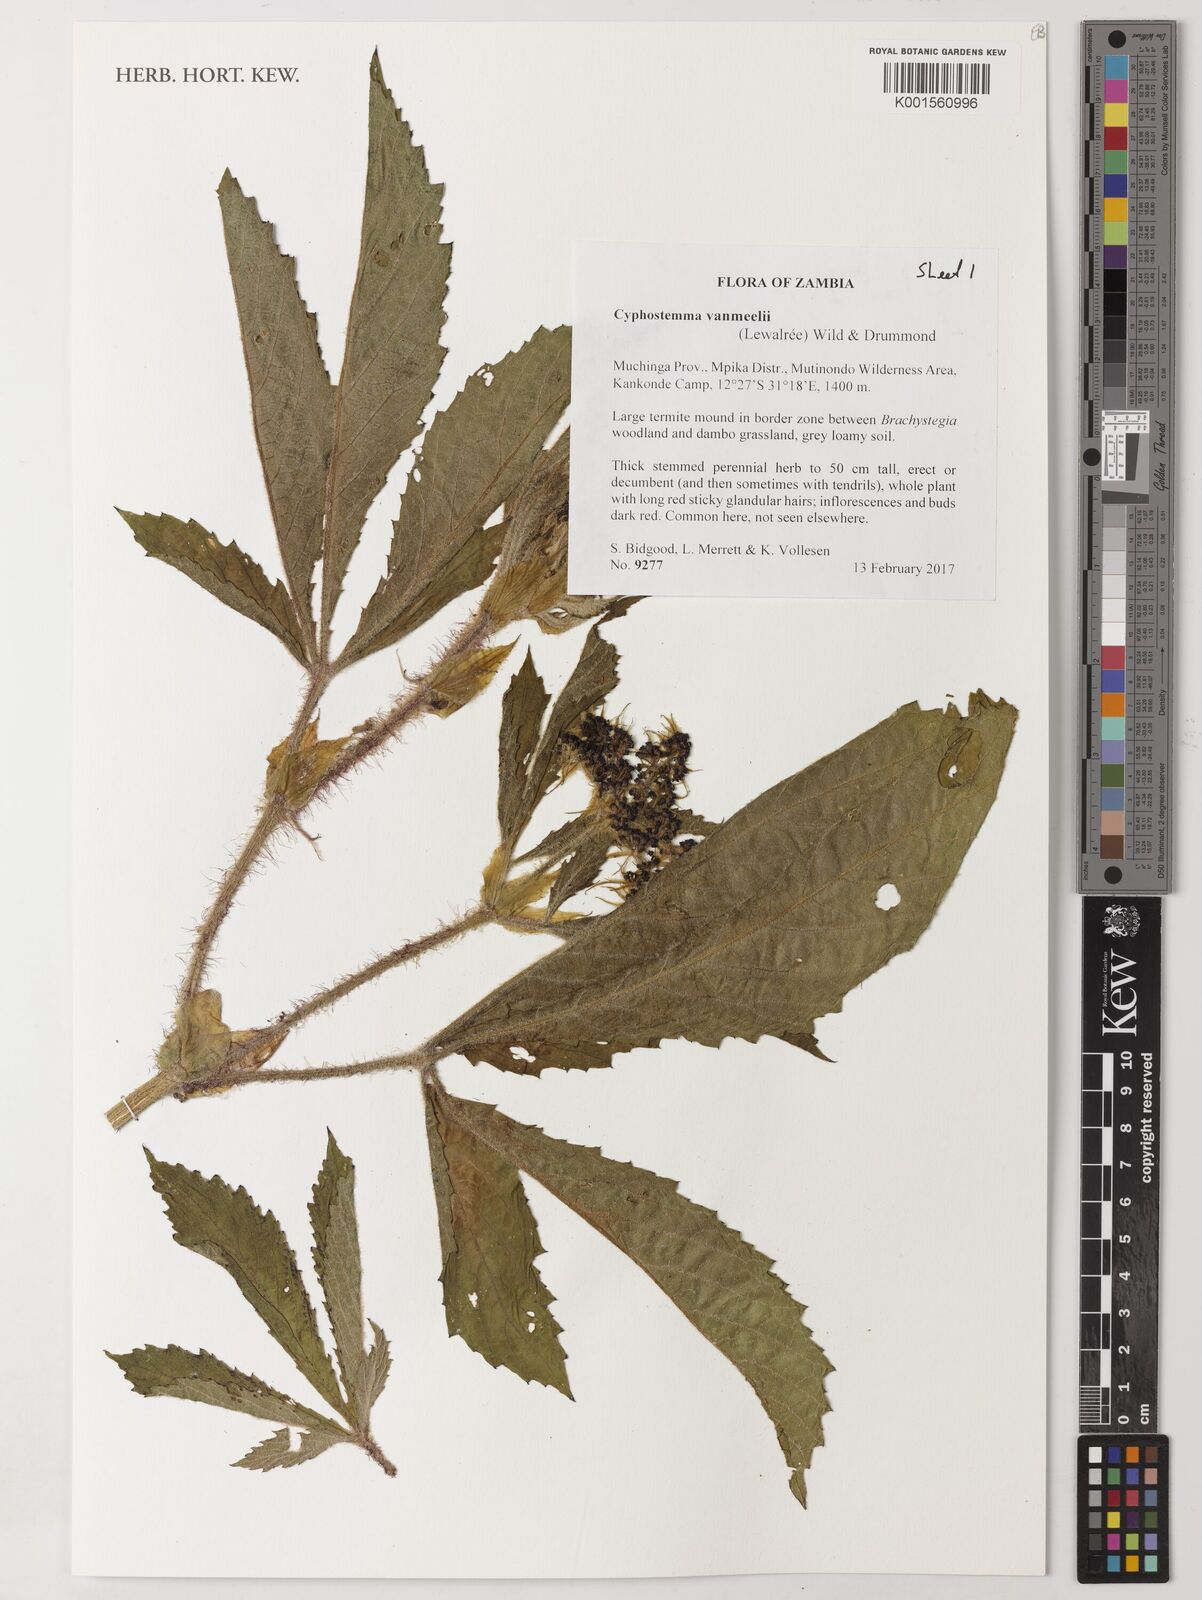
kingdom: Plantae
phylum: Tracheophyta
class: Magnoliopsida
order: Vitales
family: Vitaceae
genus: Cyphostemma
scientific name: Cyphostemma vanmeelii
